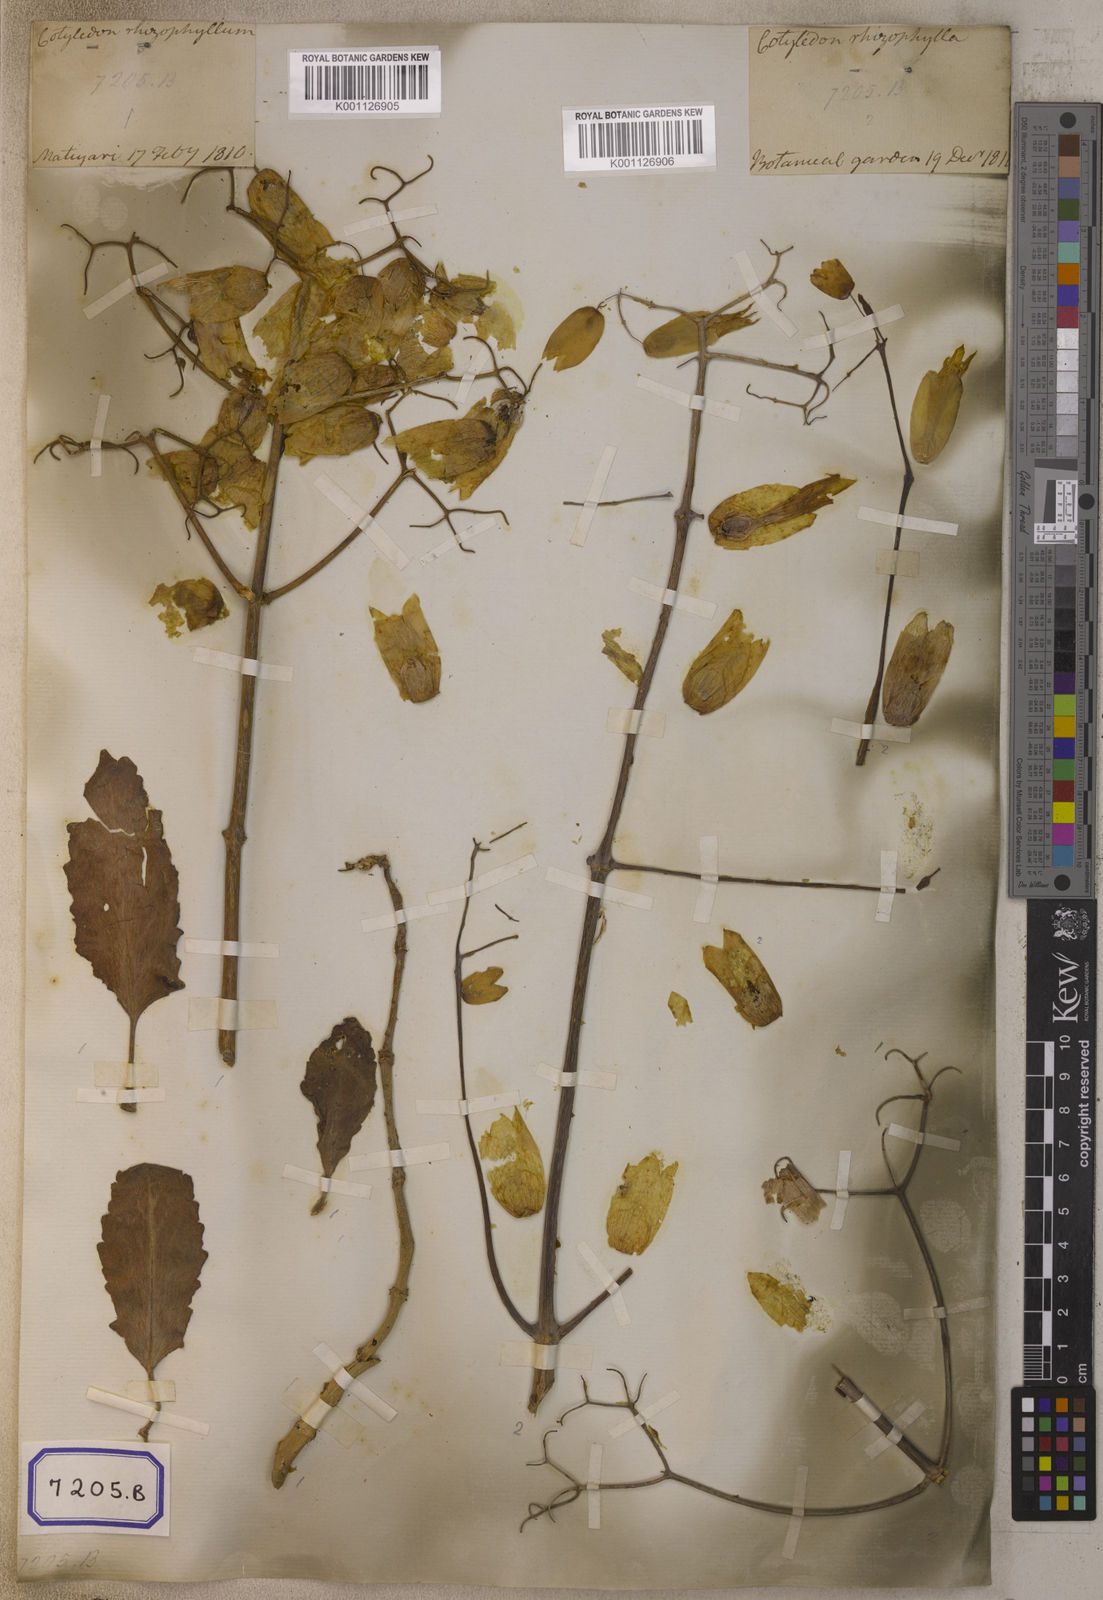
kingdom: Plantae
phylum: Tracheophyta
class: Magnoliopsida
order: Saxifragales
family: Crassulaceae
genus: Kalanchoe
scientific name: Kalanchoe pinnata
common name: Cathedral bells
